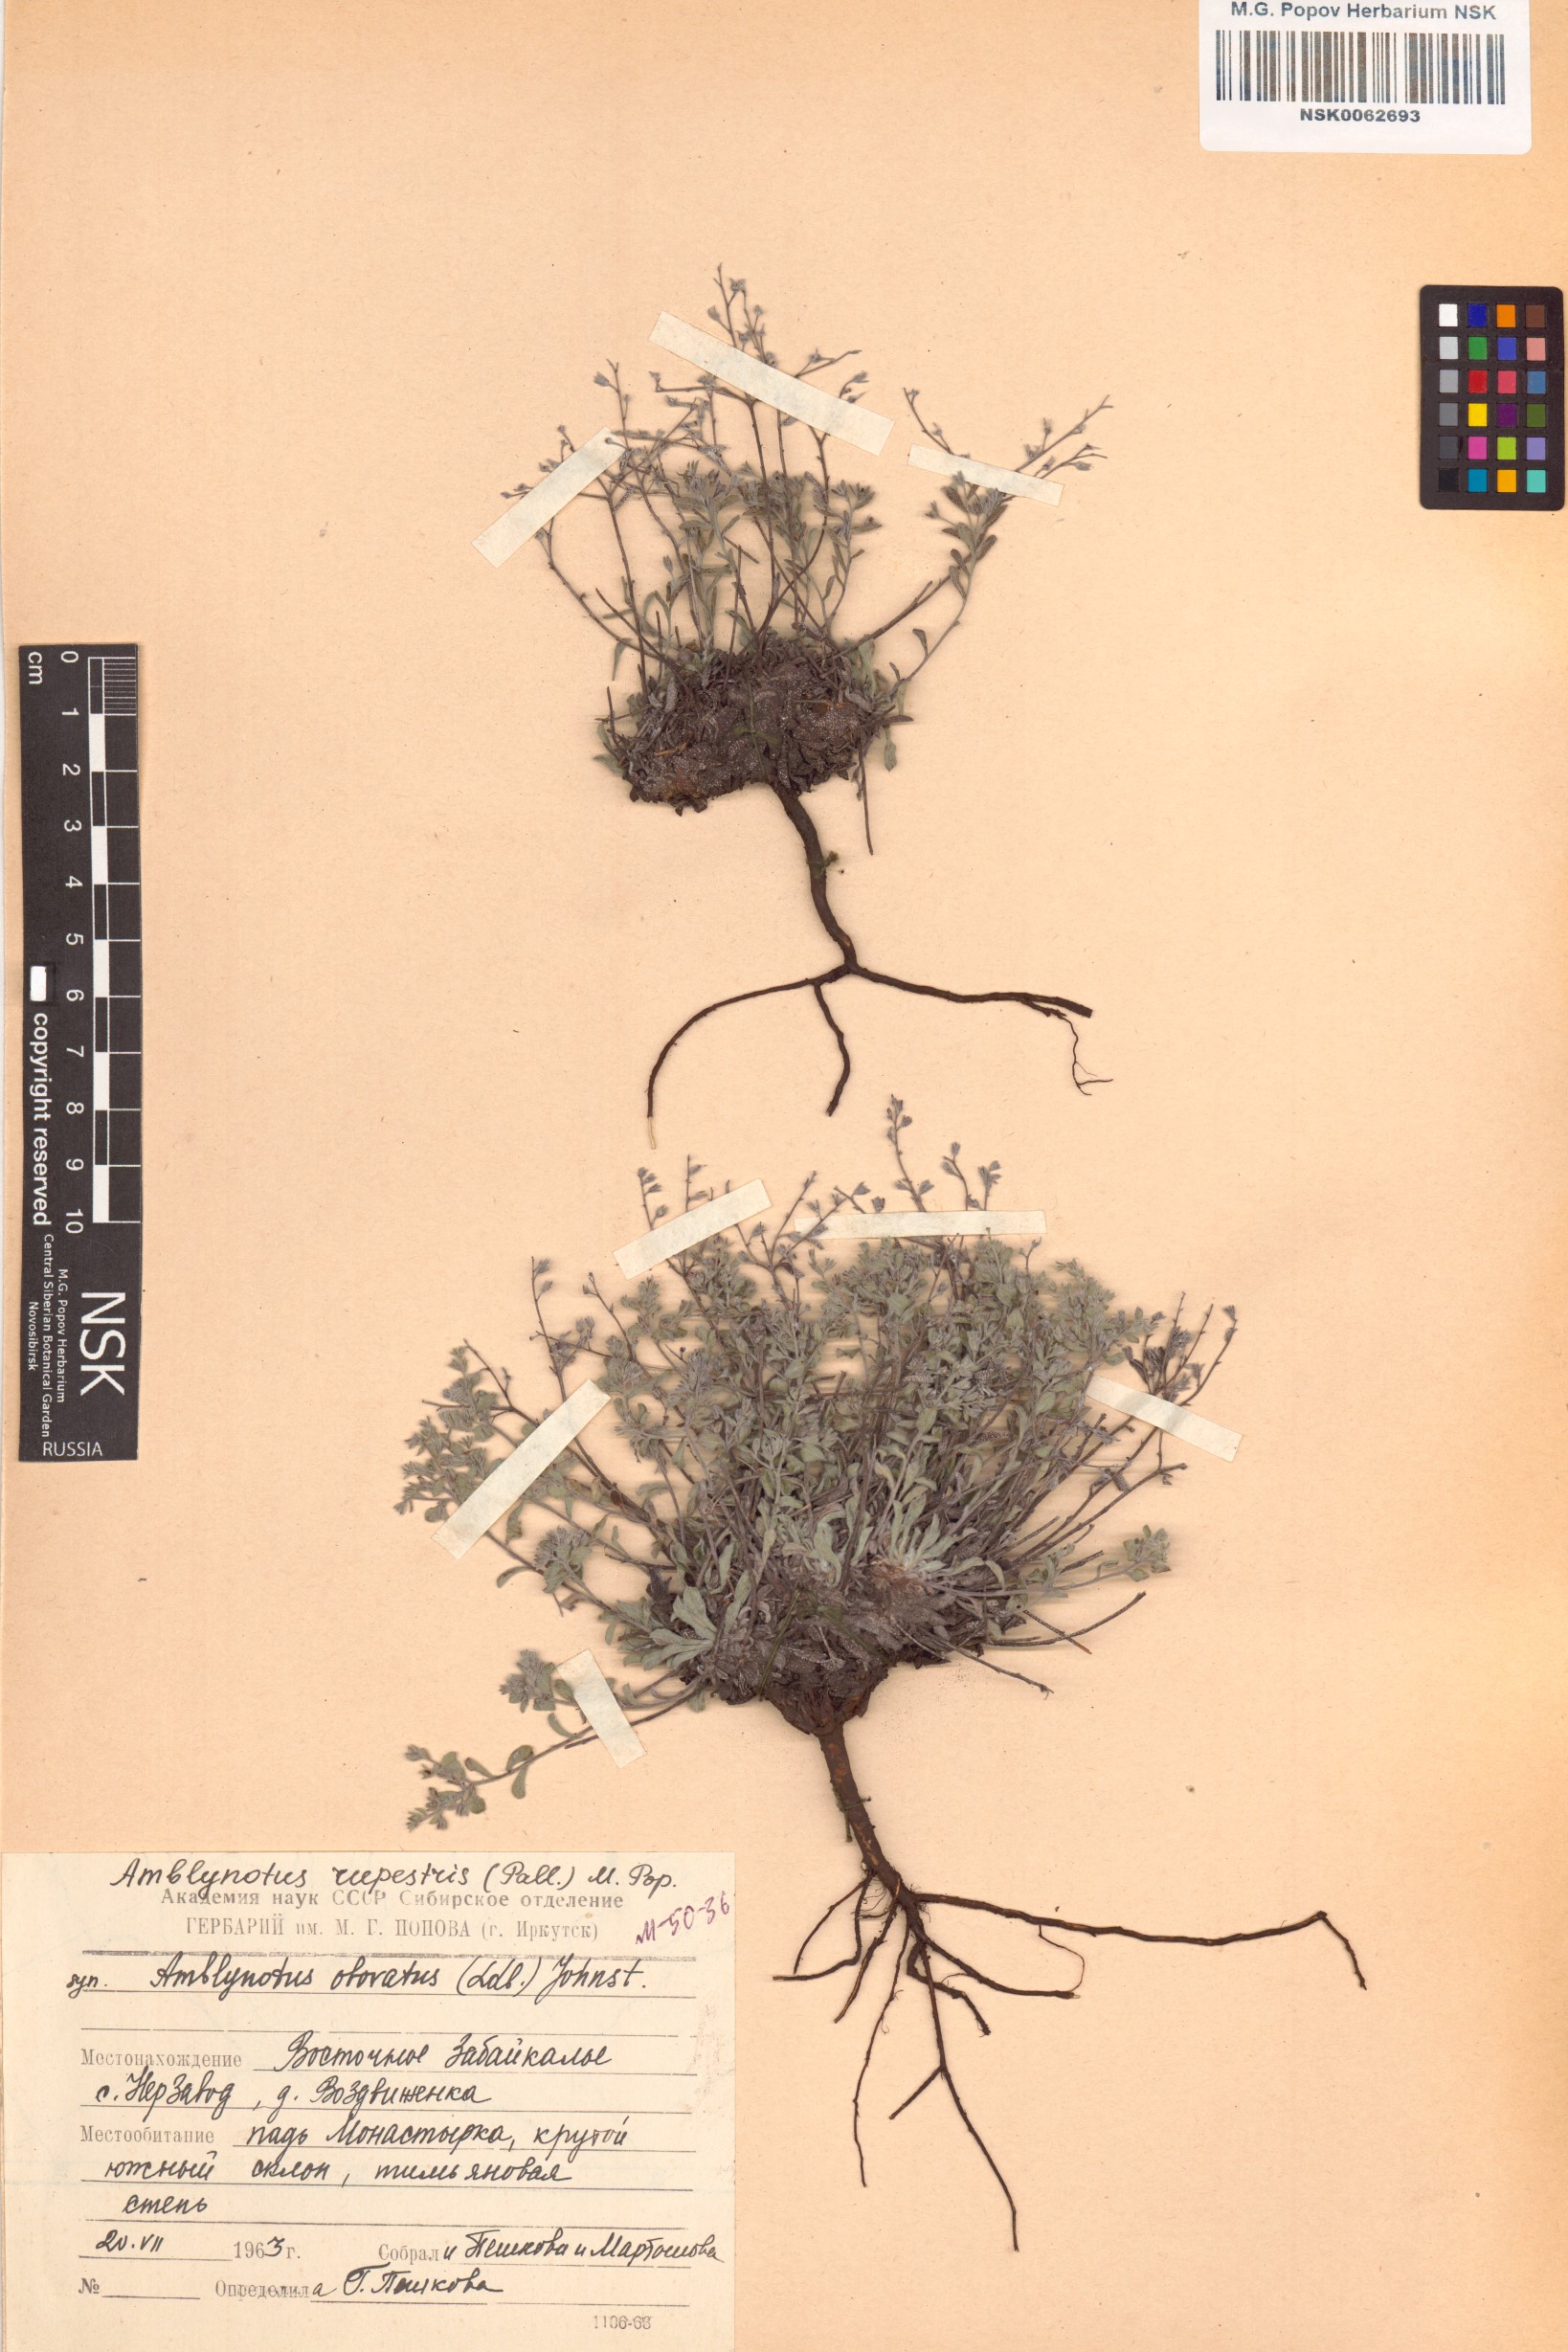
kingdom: Plantae
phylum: Tracheophyta
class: Magnoliopsida
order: Boraginales
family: Boraginaceae
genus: Eritrichium
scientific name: Eritrichium rupestre
